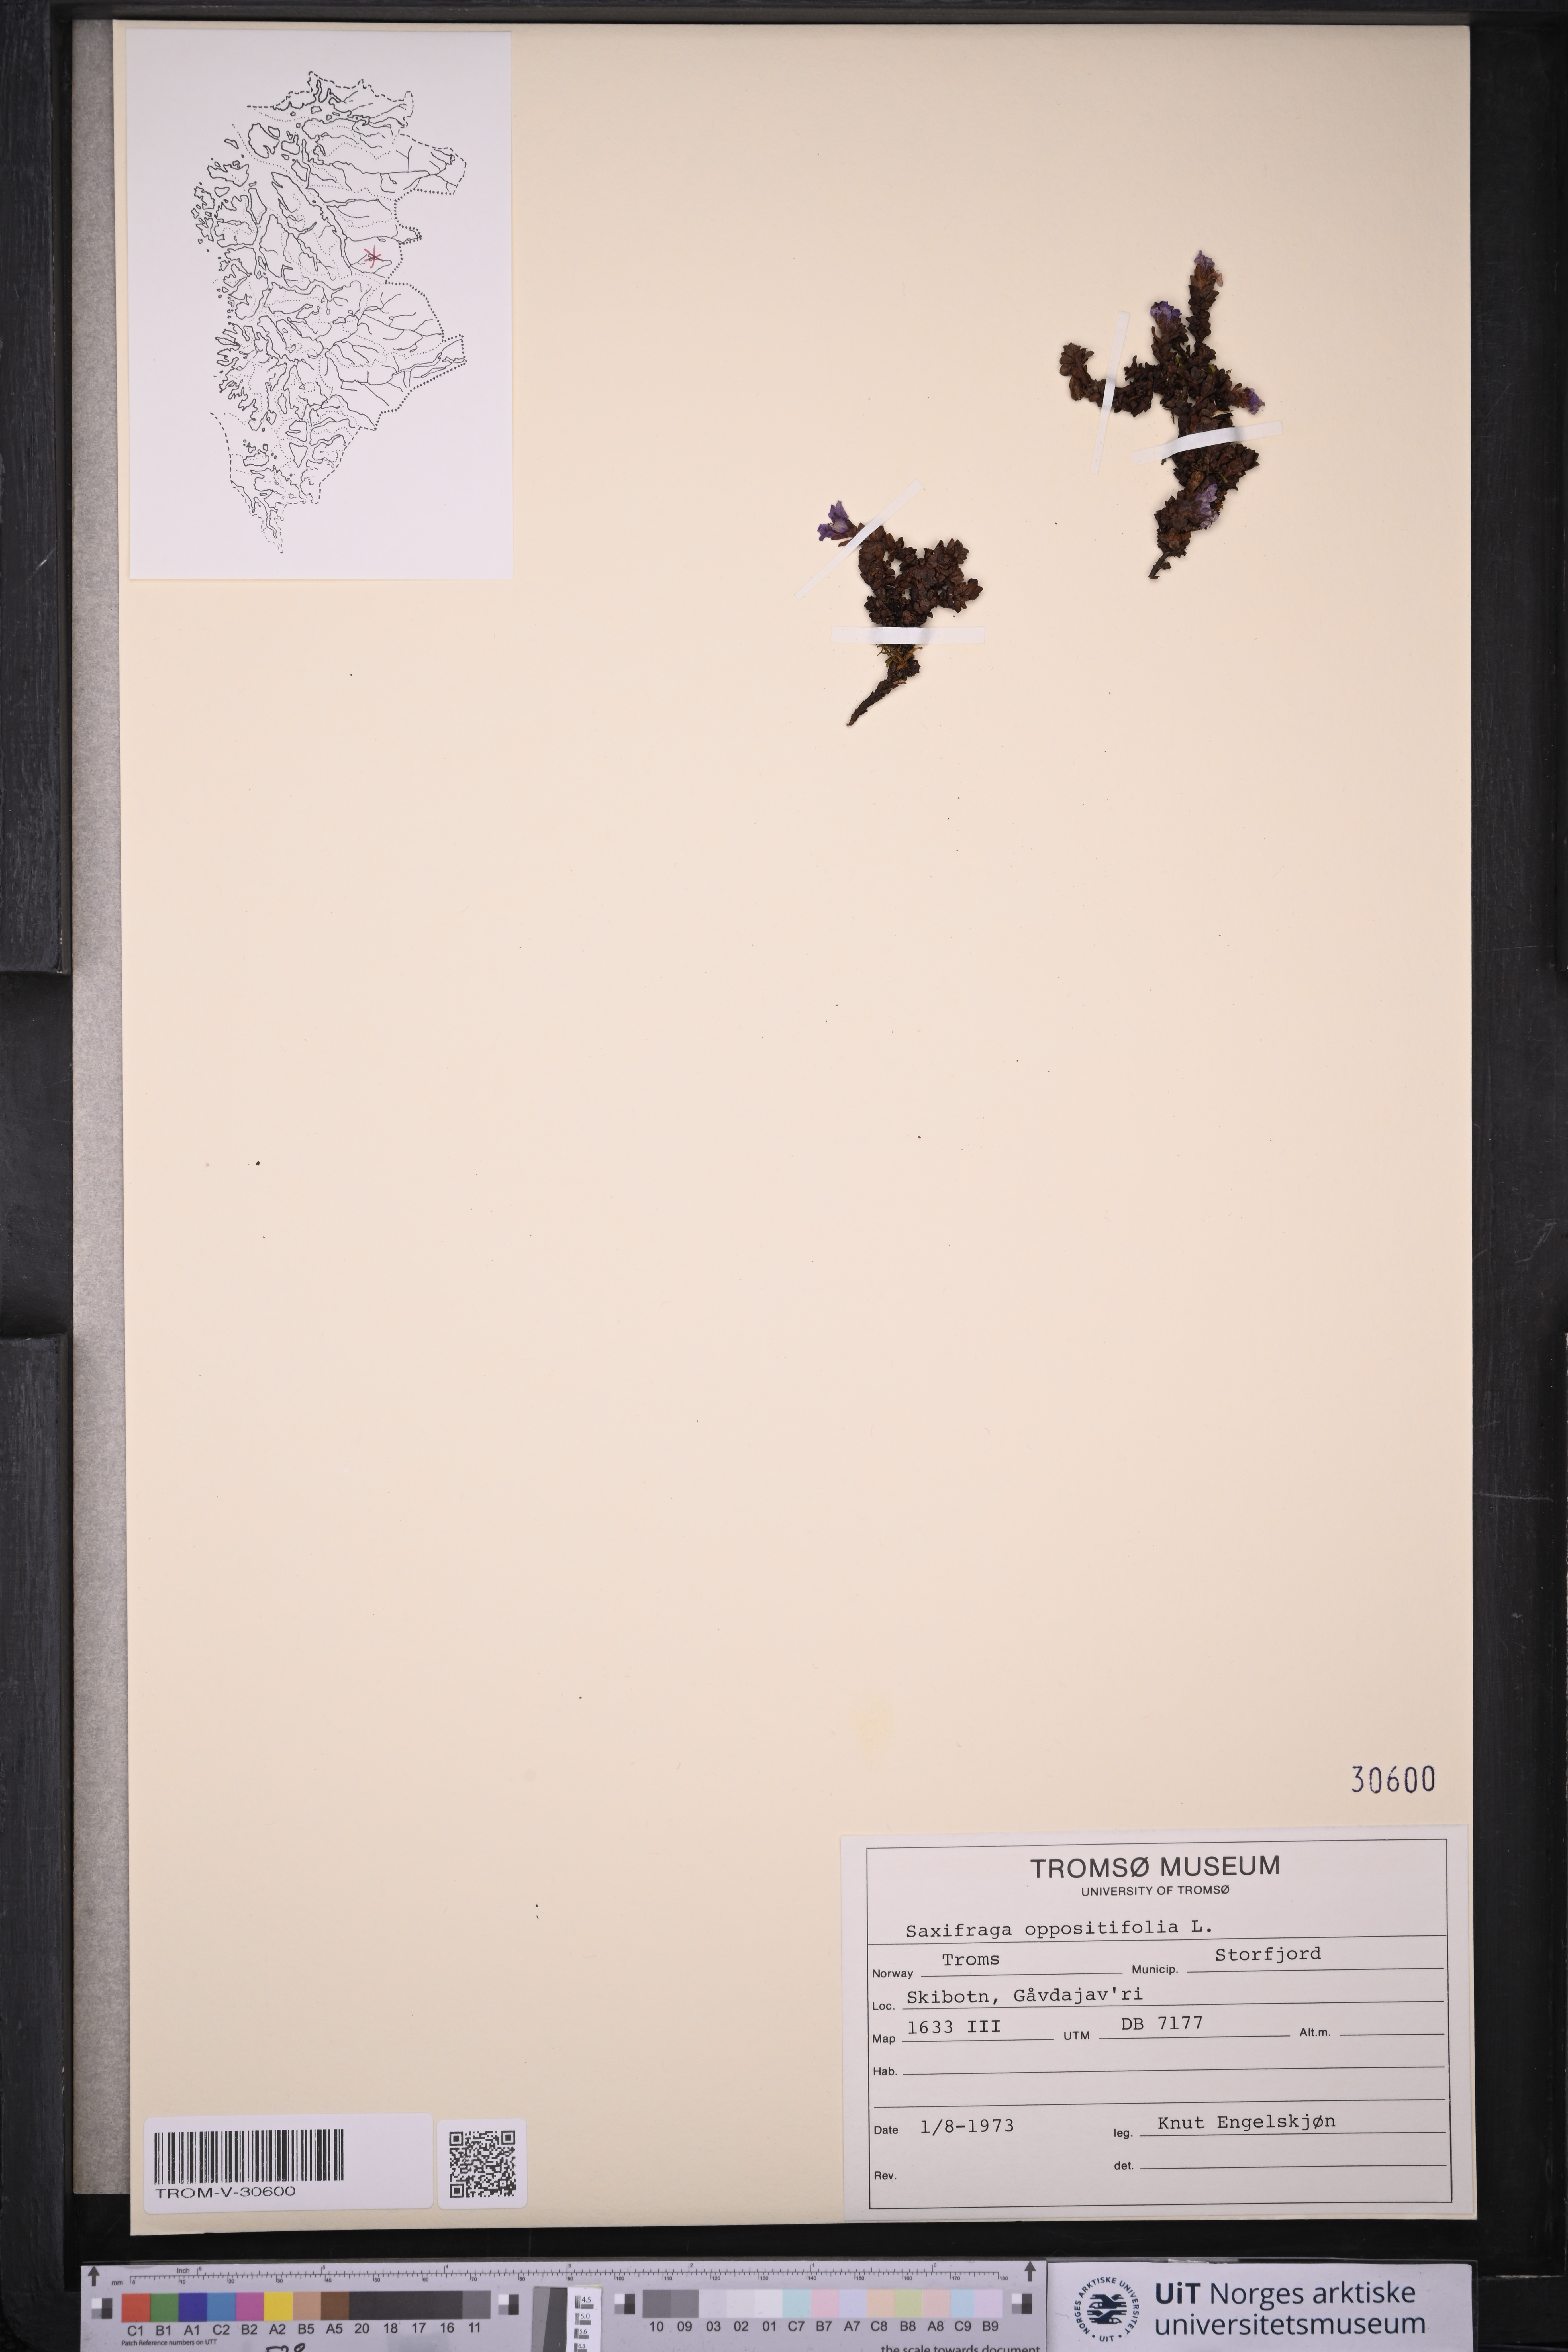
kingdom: Plantae
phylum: Tracheophyta
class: Magnoliopsida
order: Saxifragales
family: Saxifragaceae
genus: Saxifraga
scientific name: Saxifraga oppositifolia
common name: Purple saxifrage
